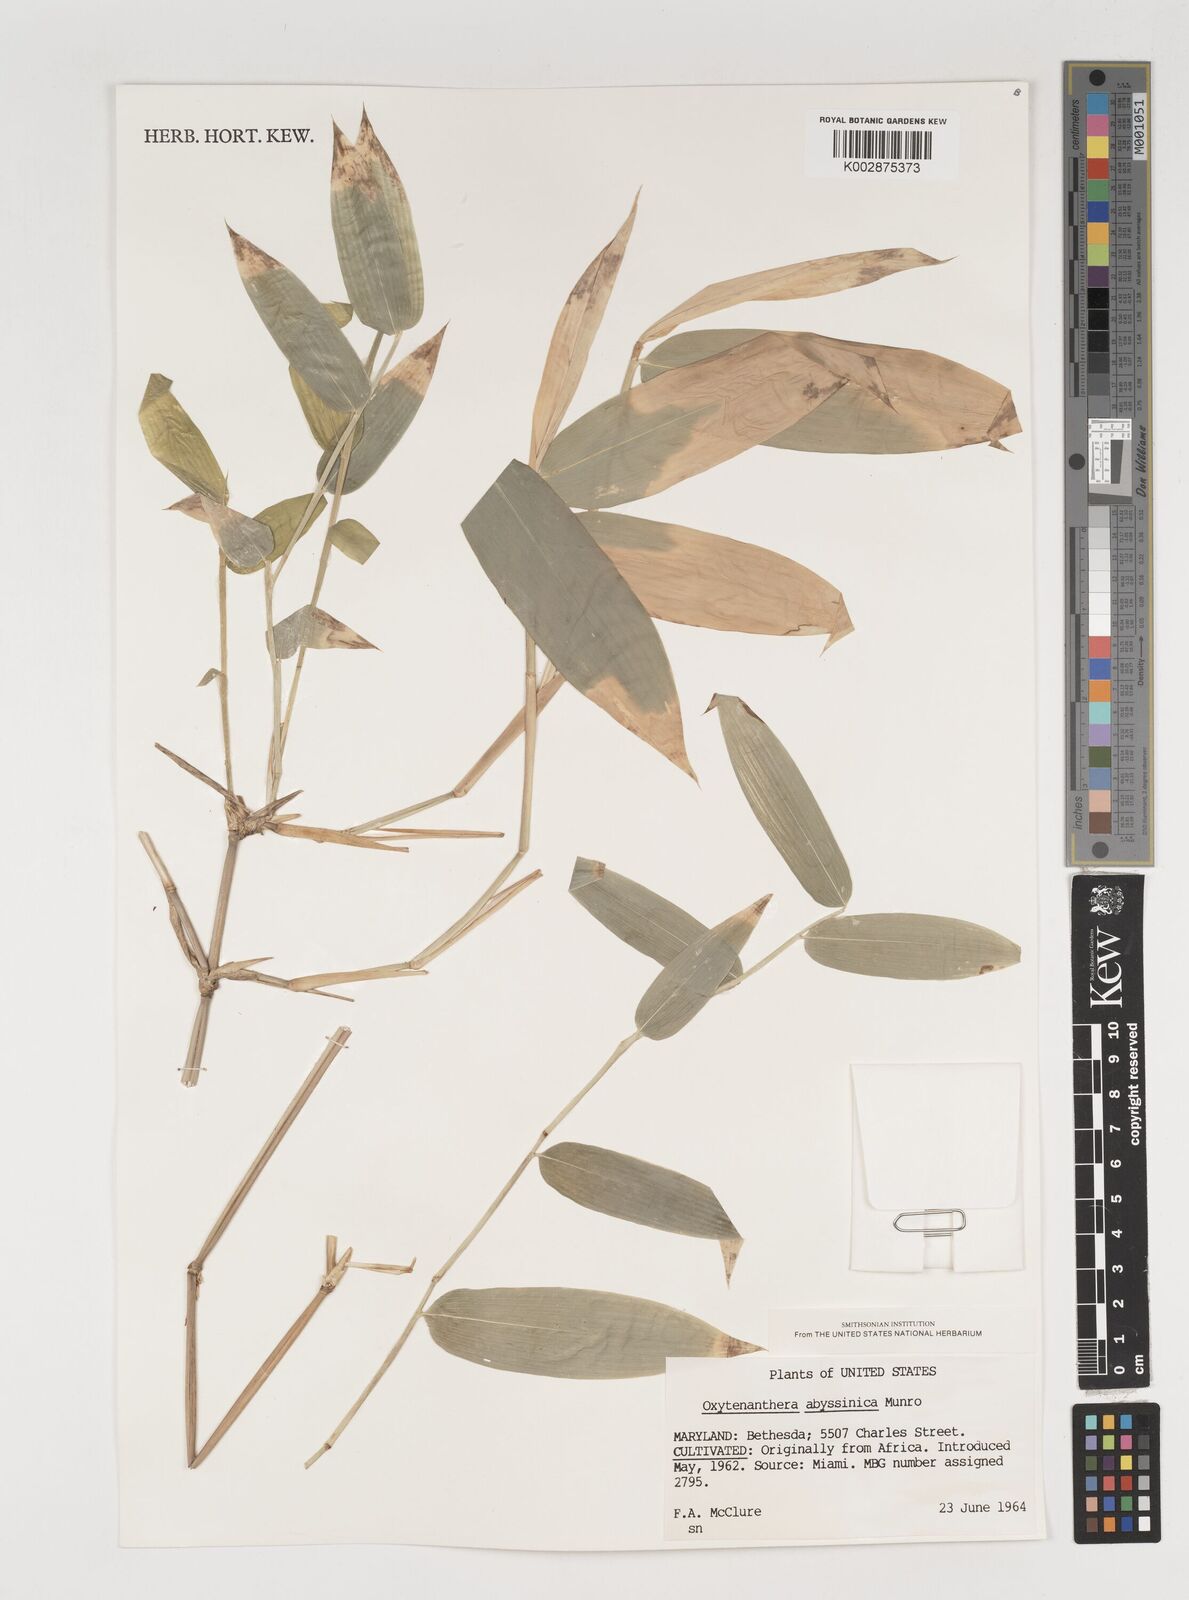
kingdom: Plantae
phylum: Tracheophyta
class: Liliopsida
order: Poales
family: Poaceae
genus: Oxytenanthera
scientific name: Oxytenanthera abyssinica
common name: Wine bamboo
